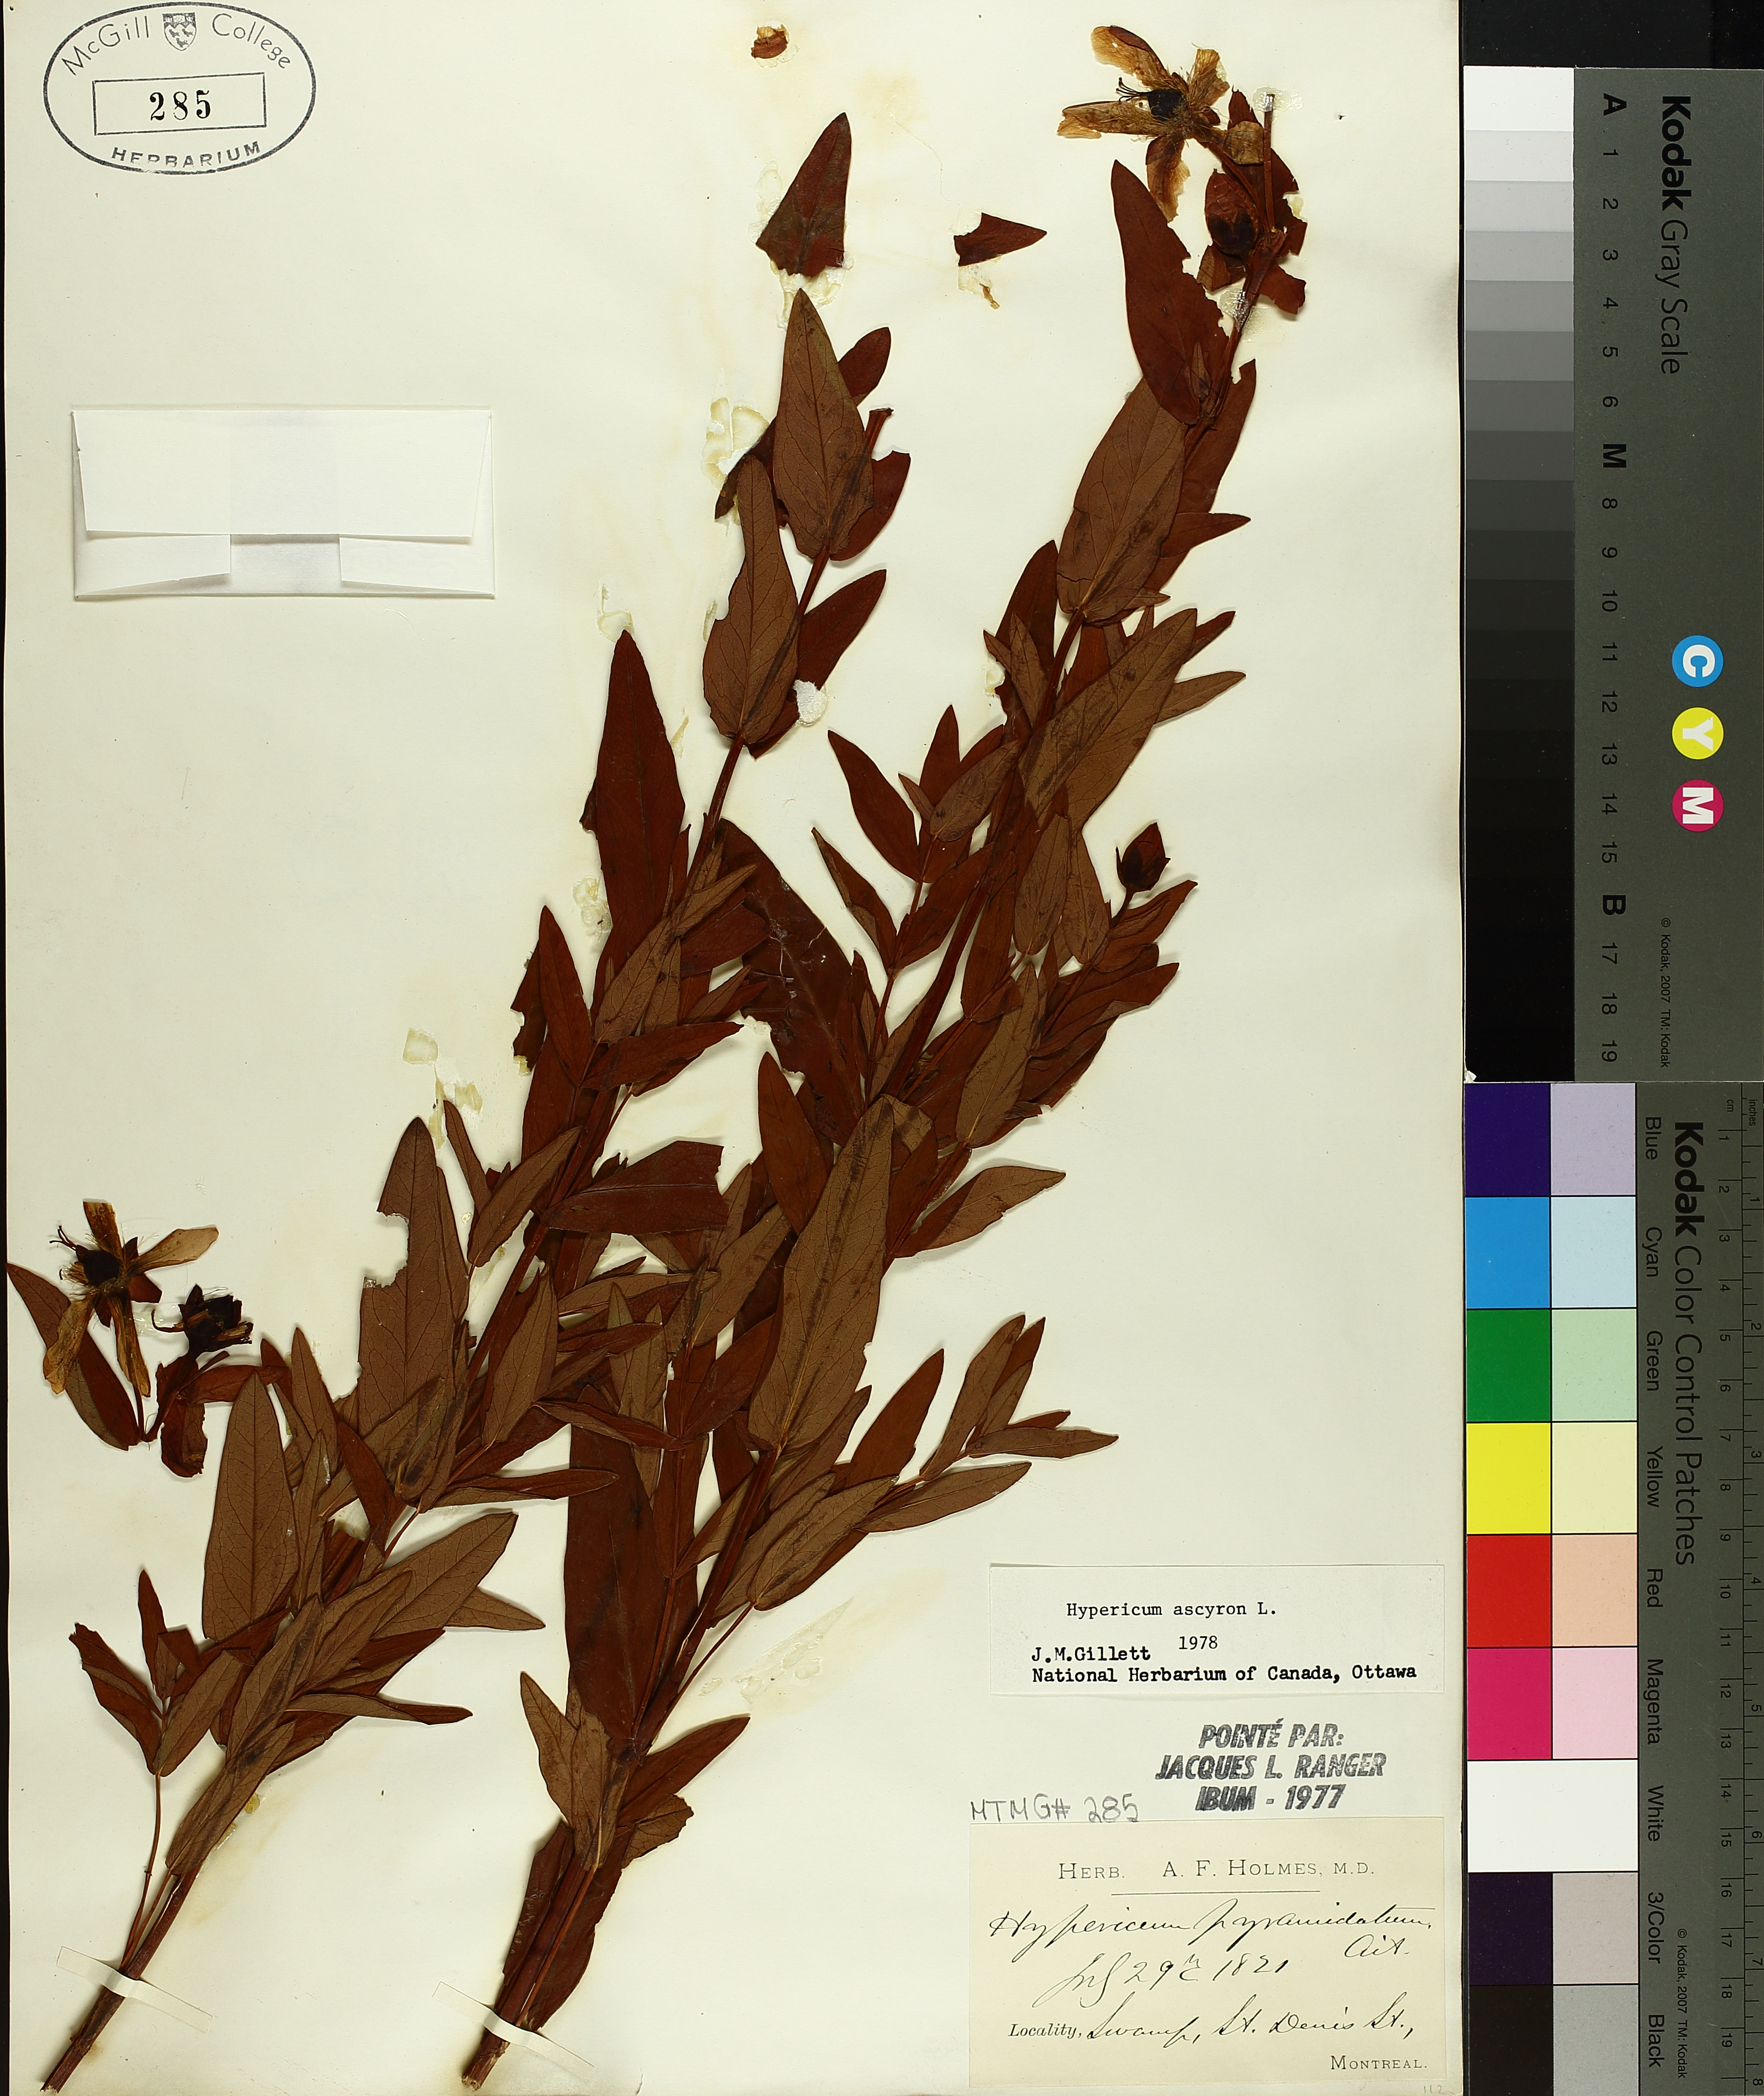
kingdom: Plantae
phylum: Tracheophyta
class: Liliopsida
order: Poales
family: Cyperaceae
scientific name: Cyperaceae
